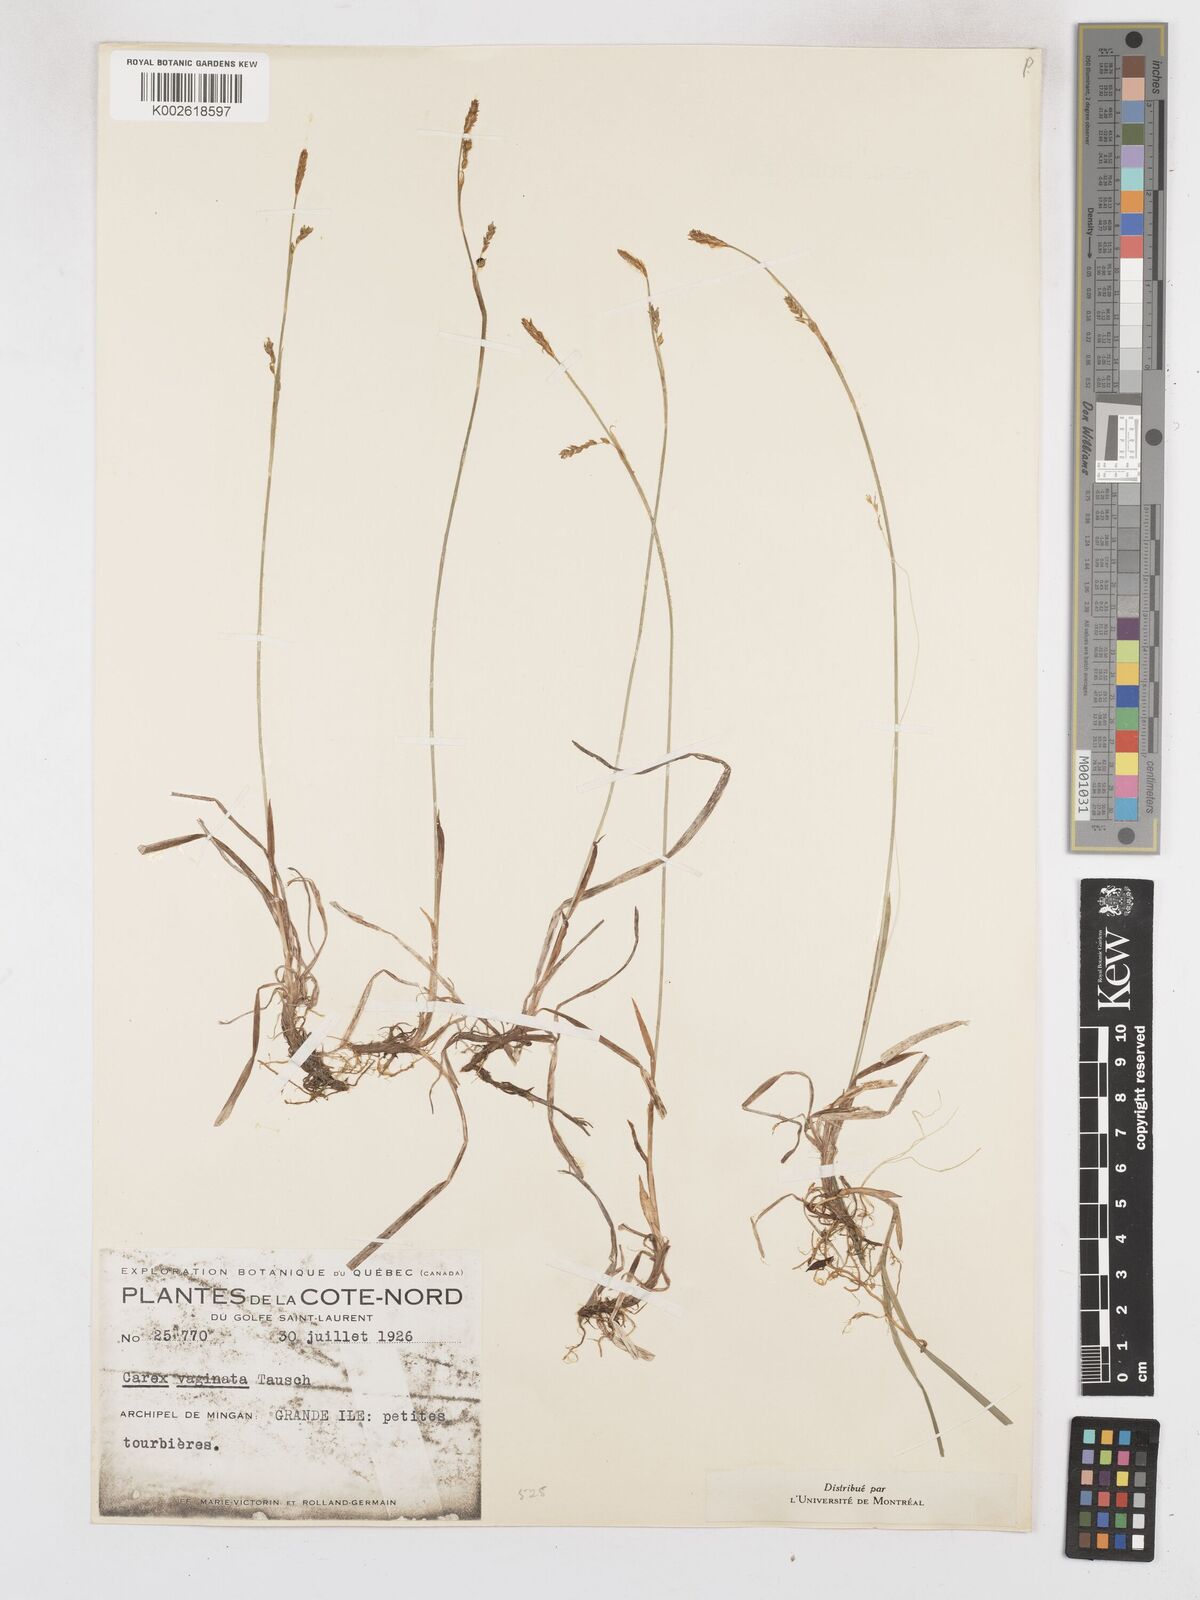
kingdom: Plantae
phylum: Tracheophyta
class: Liliopsida
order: Poales
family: Cyperaceae
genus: Carex
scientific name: Carex vaginata
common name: Sheathed sedge
